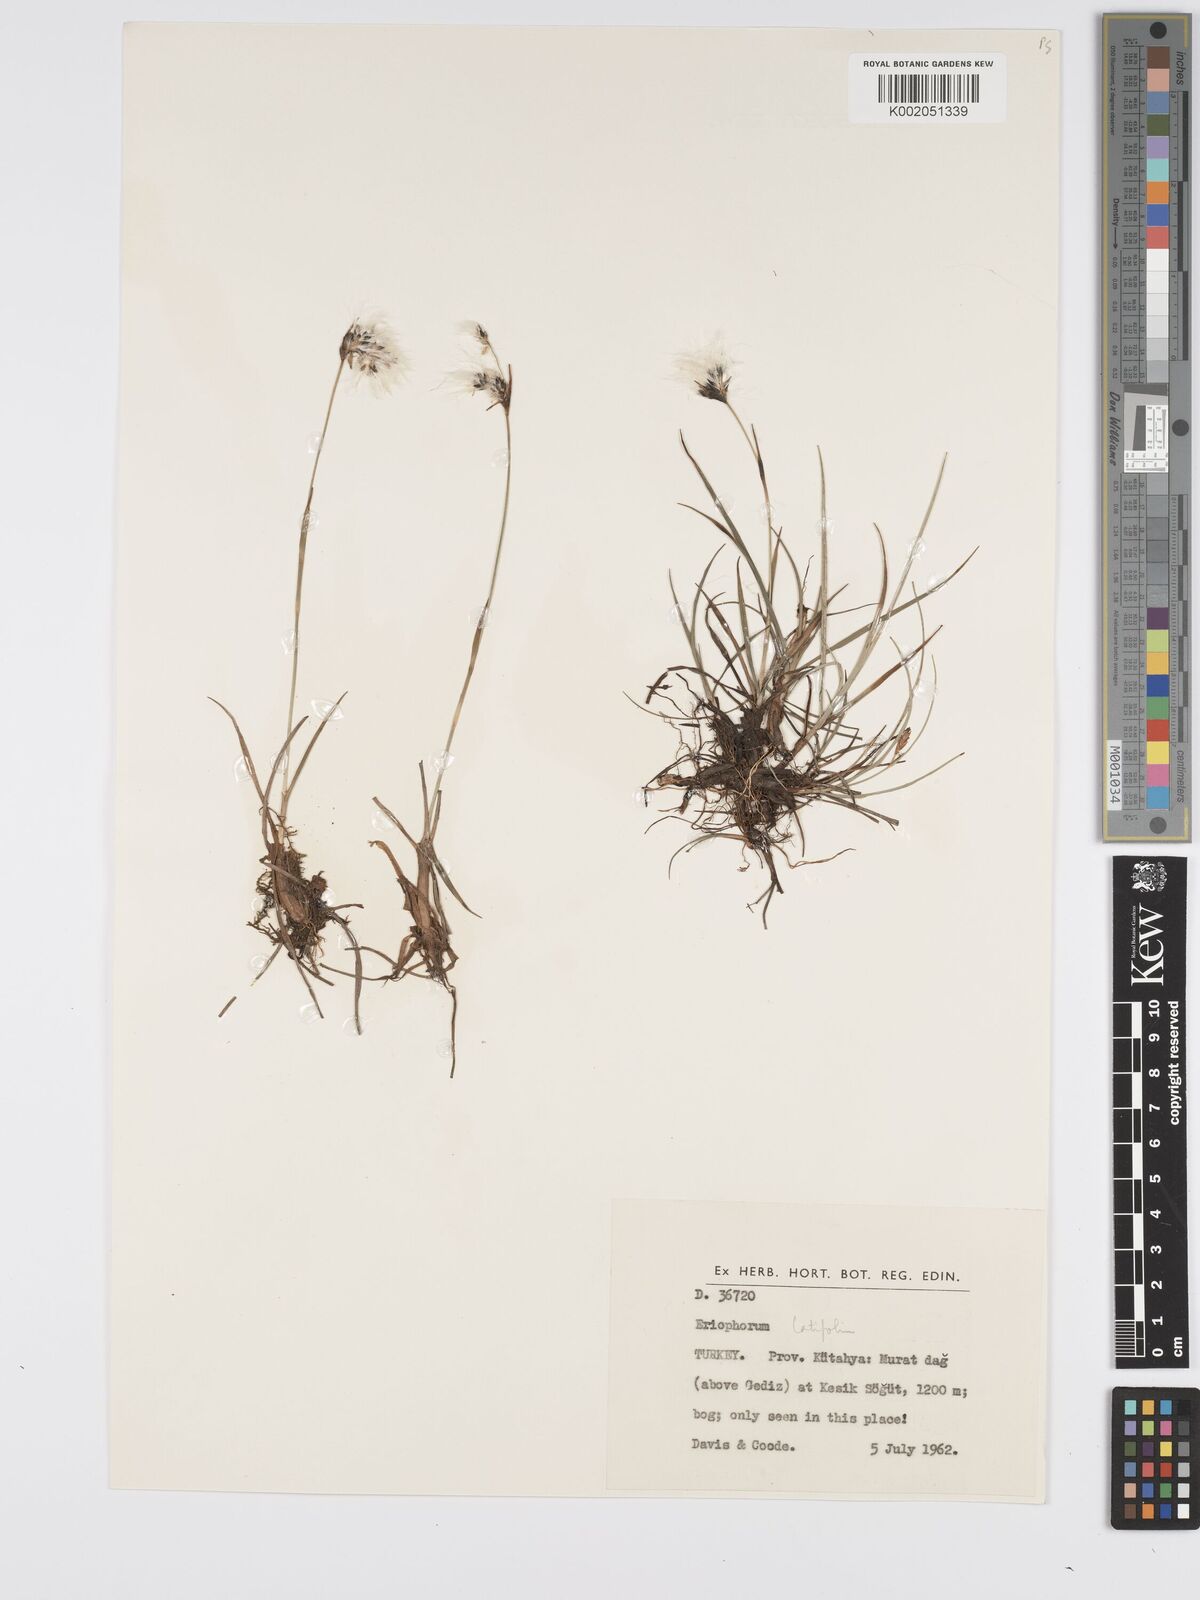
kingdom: Plantae
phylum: Tracheophyta
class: Liliopsida
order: Poales
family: Cyperaceae
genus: Eriophorum
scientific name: Eriophorum latifolium
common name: Broad-leaved cottongrass
